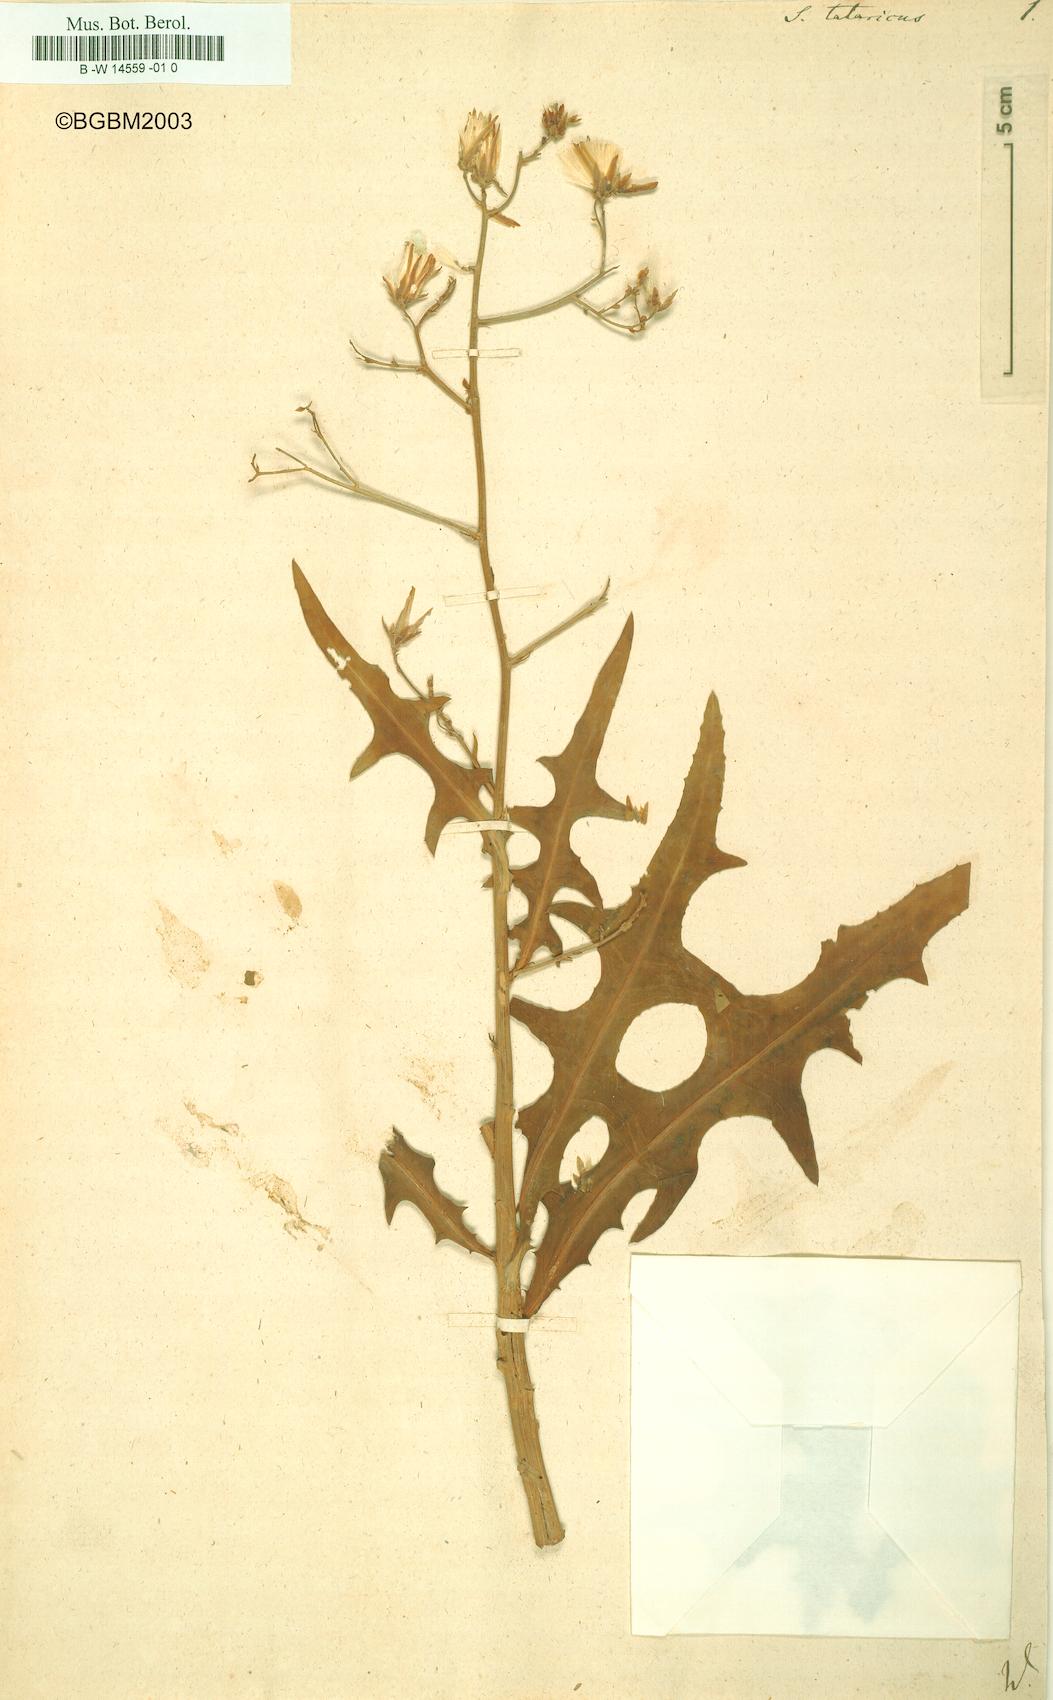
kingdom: Plantae
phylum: Tracheophyta
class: Magnoliopsida
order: Asterales
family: Asteraceae
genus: Lactuca
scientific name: Lactuca tatarica
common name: Blue lettuce
